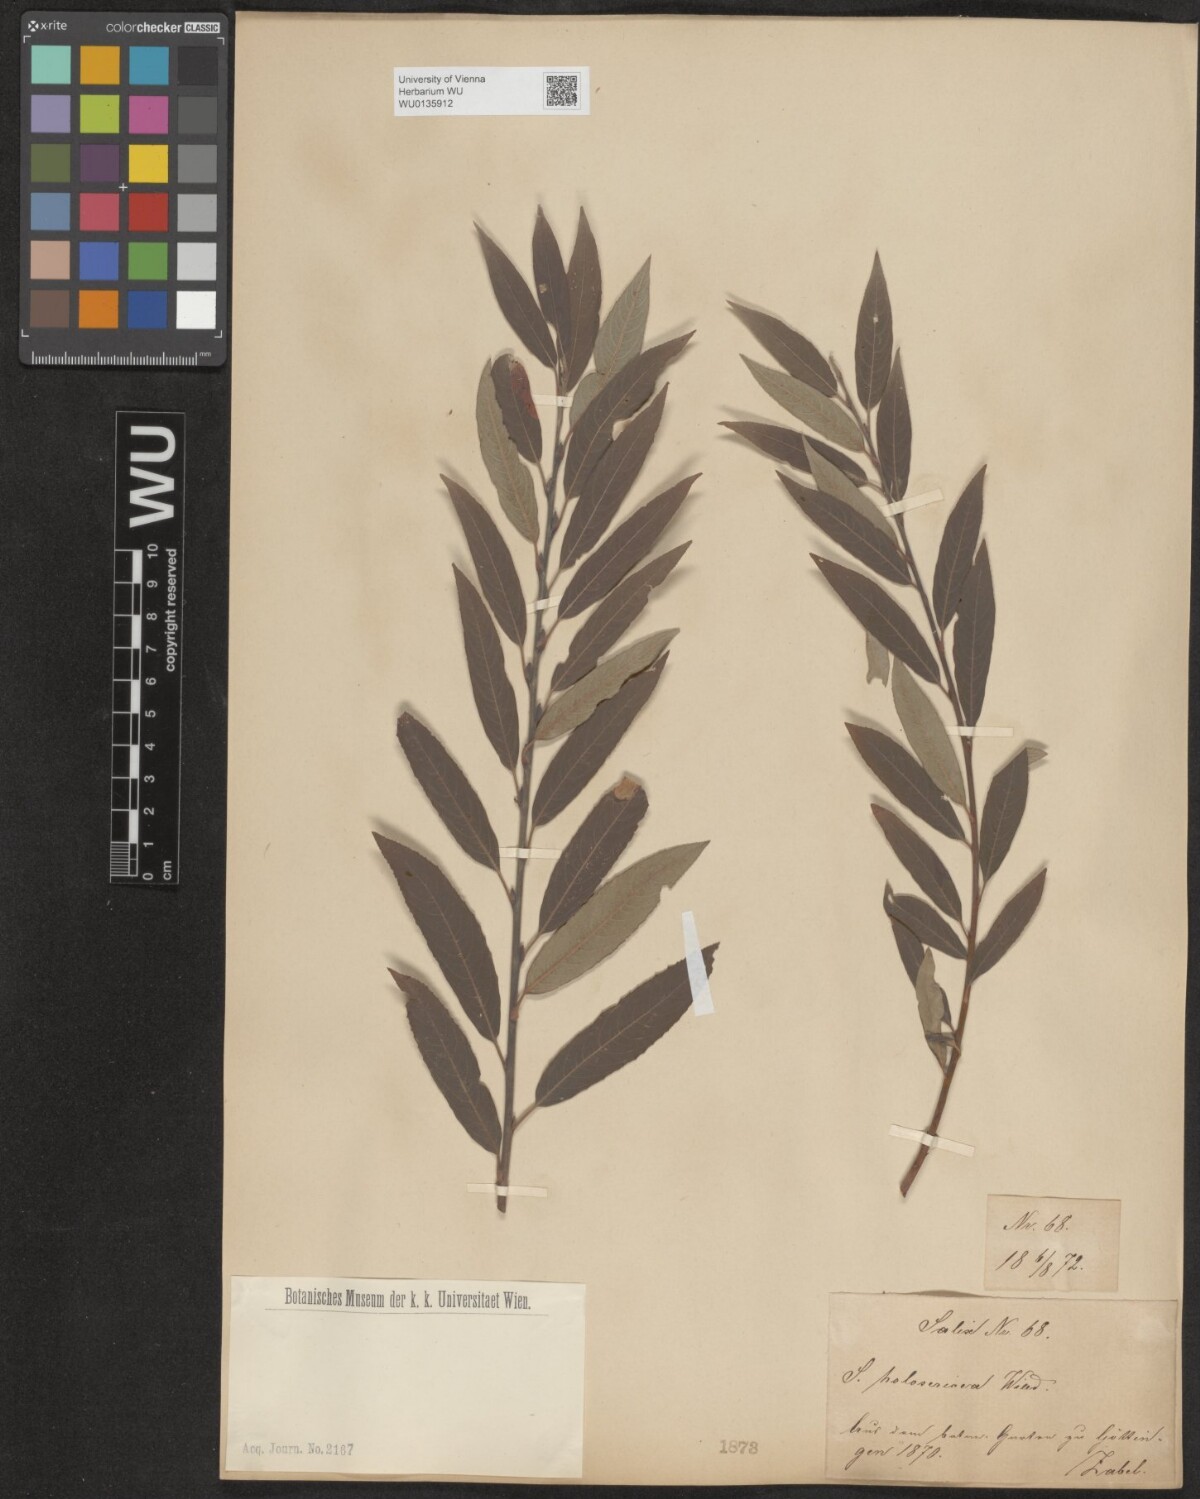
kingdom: Plantae
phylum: Tracheophyta
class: Magnoliopsida
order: Malpighiales
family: Salicaceae
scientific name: Salicaceae
